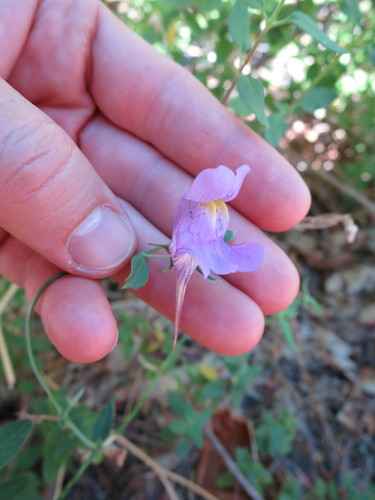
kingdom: Plantae
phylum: Tracheophyta
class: Magnoliopsida
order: Lamiales
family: Plantaginaceae
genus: Linaria
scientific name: Linaria triornithophora
